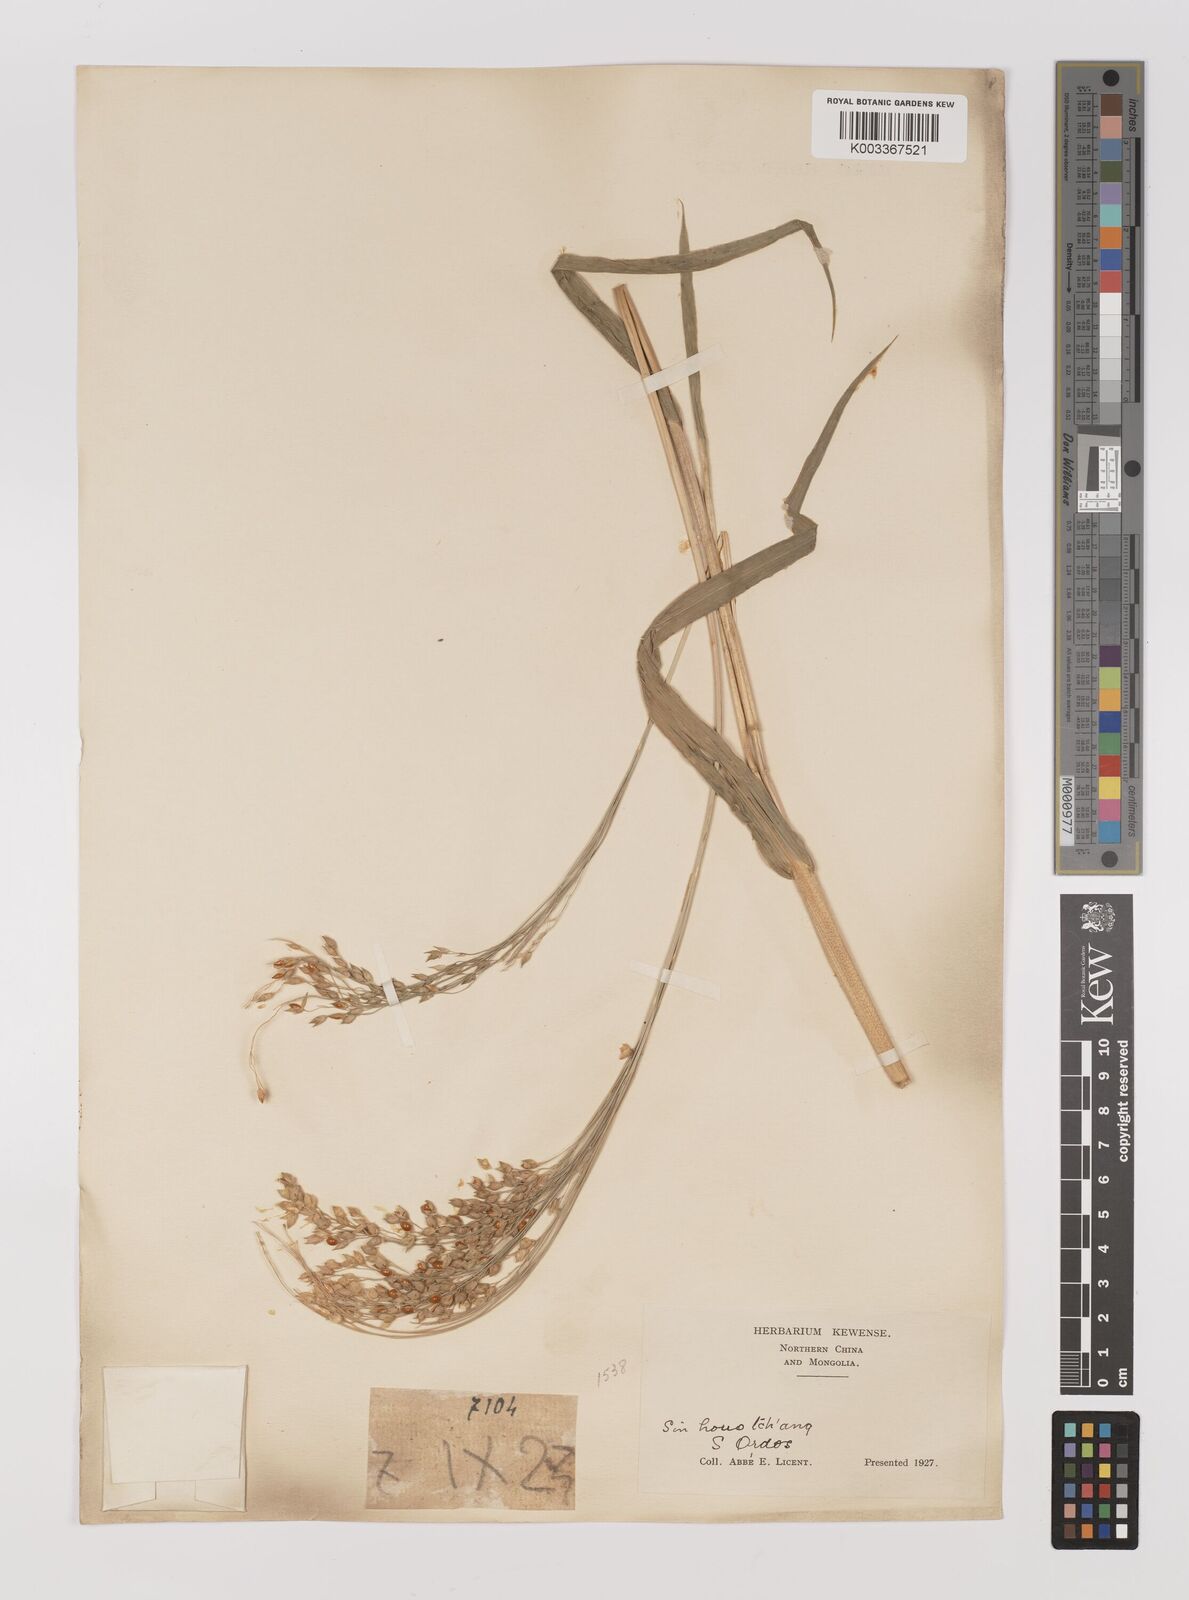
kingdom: Plantae
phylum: Tracheophyta
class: Liliopsida
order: Poales
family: Poaceae
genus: Panicum
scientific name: Panicum miliaceum
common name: Common millet
